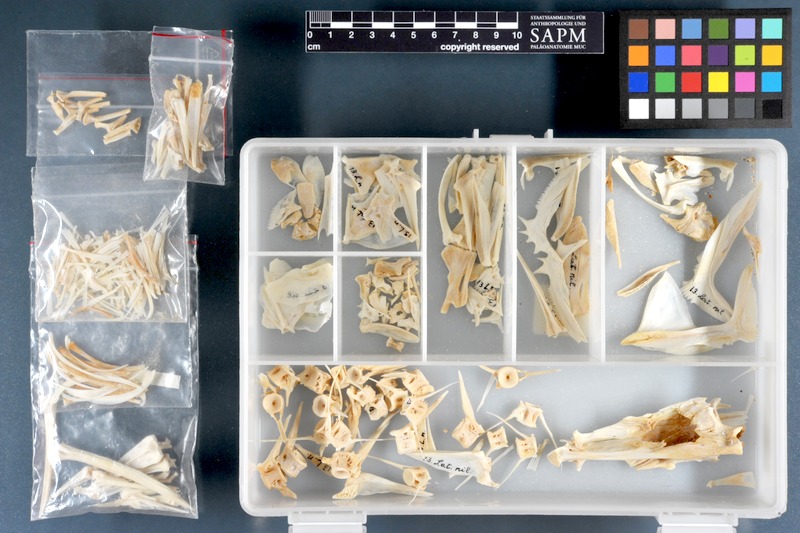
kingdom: Animalia
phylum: Chordata
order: Perciformes
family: Latidae
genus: Lates
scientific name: Lates niloticus
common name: Nile perch
